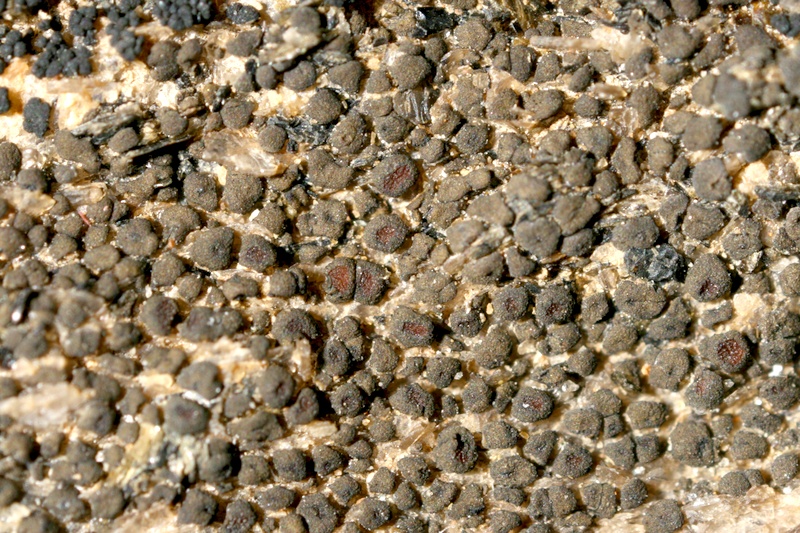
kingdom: Fungi
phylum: Ascomycota
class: Lichinomycetes
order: Lichinales
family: Lichinaceae
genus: Phloeopeccania
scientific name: Phloeopeccania
